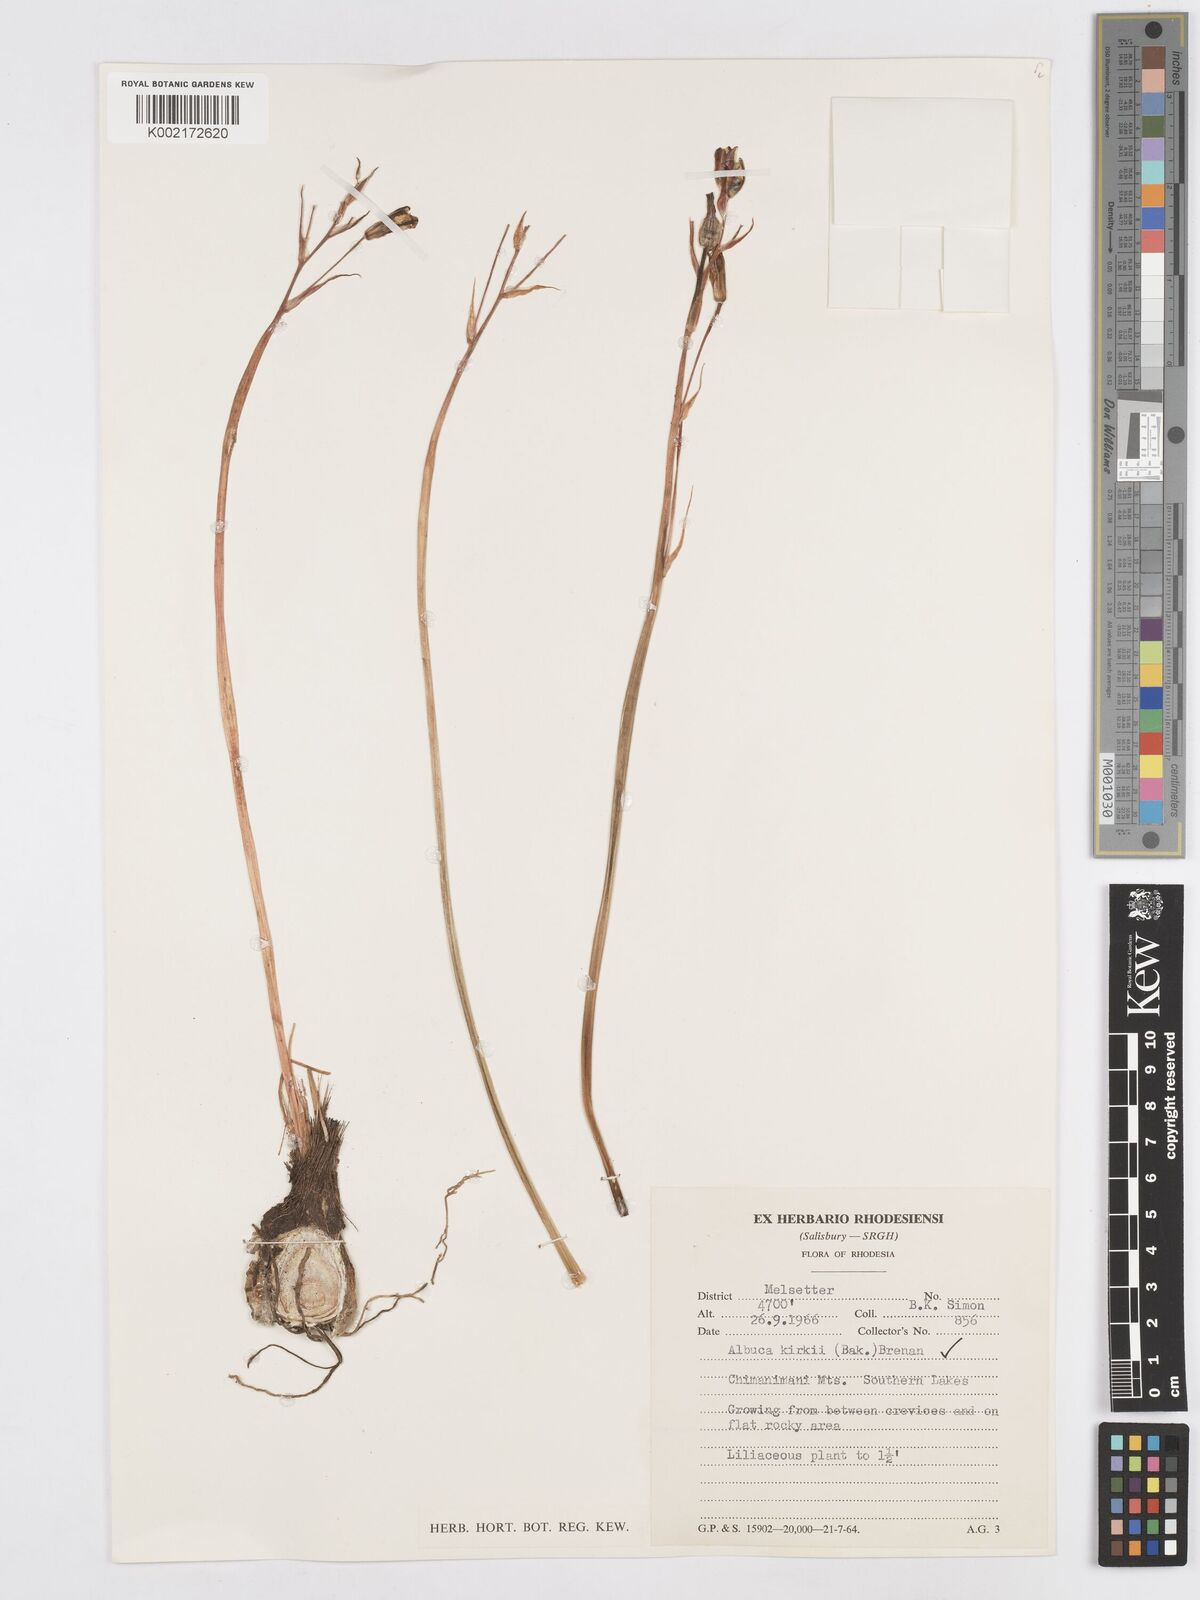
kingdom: Plantae
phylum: Tracheophyta
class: Liliopsida
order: Asparagales
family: Asparagaceae
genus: Albuca
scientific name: Albuca kirkii
